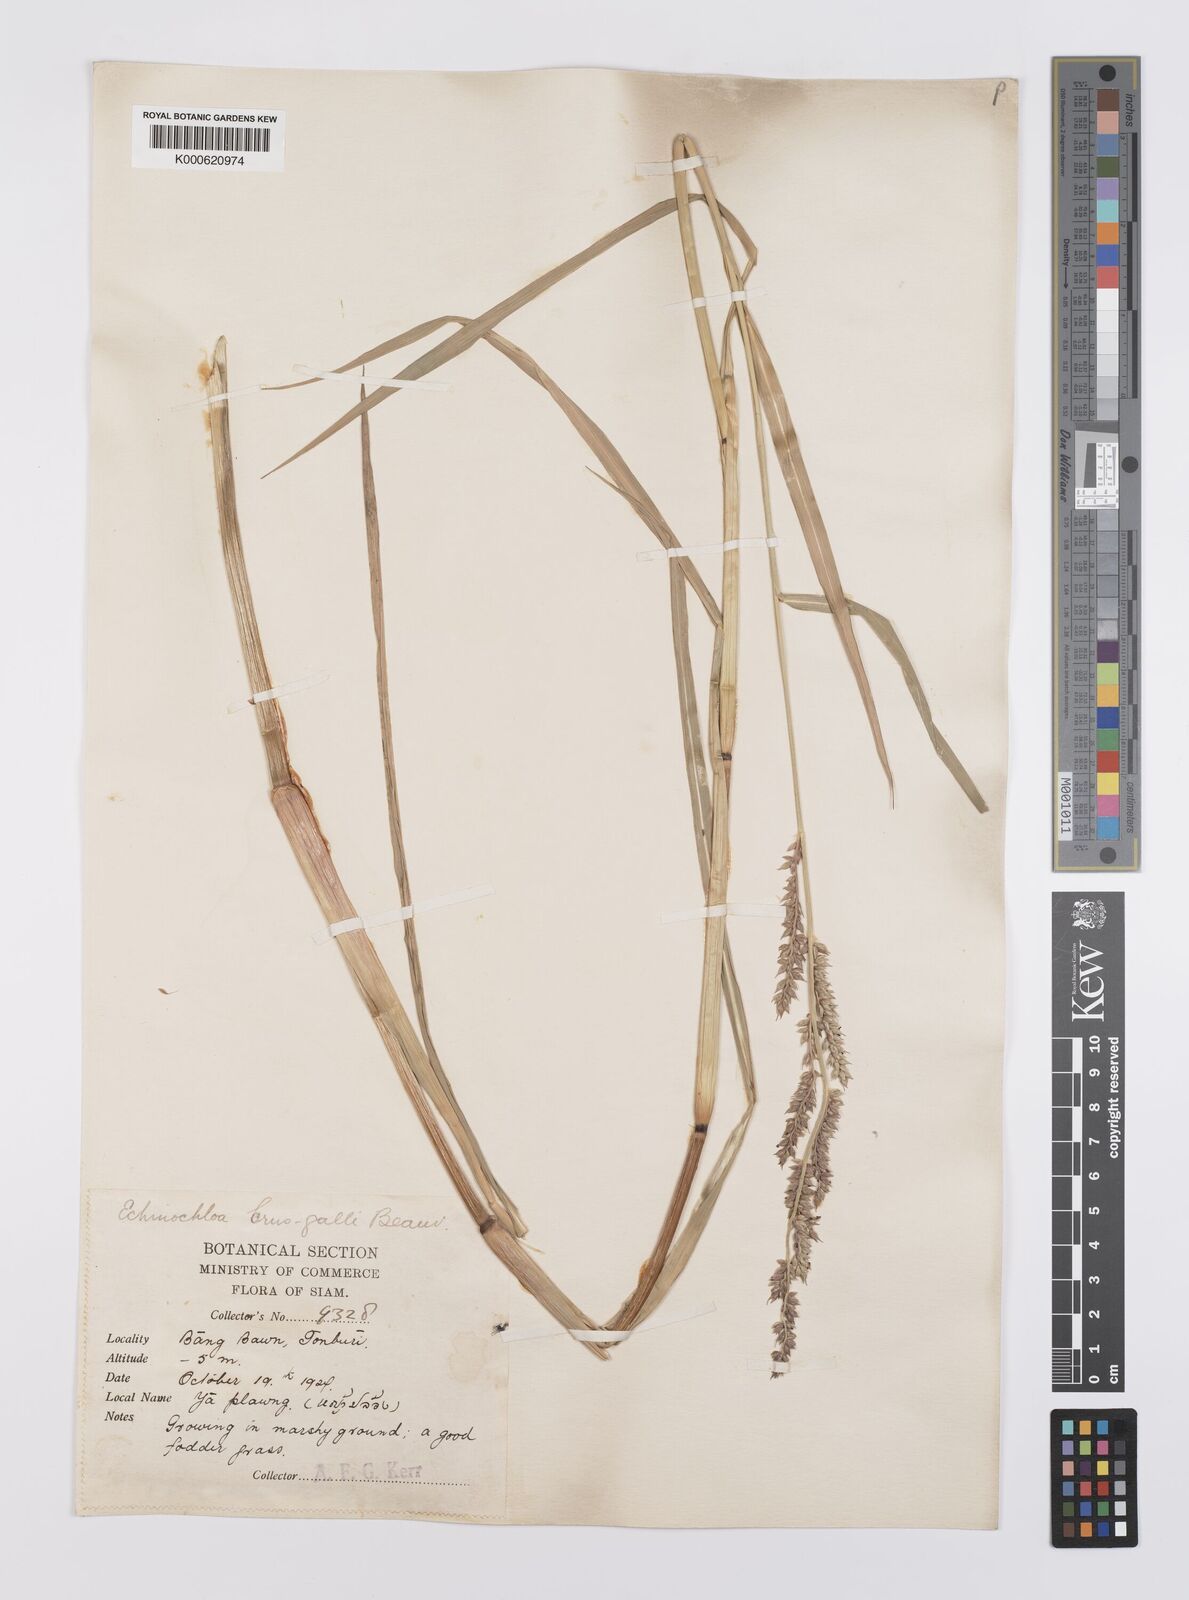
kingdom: Plantae
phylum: Tracheophyta
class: Liliopsida
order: Poales
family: Poaceae
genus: Echinochloa
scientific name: Echinochloa crus-galli
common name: Cockspur
